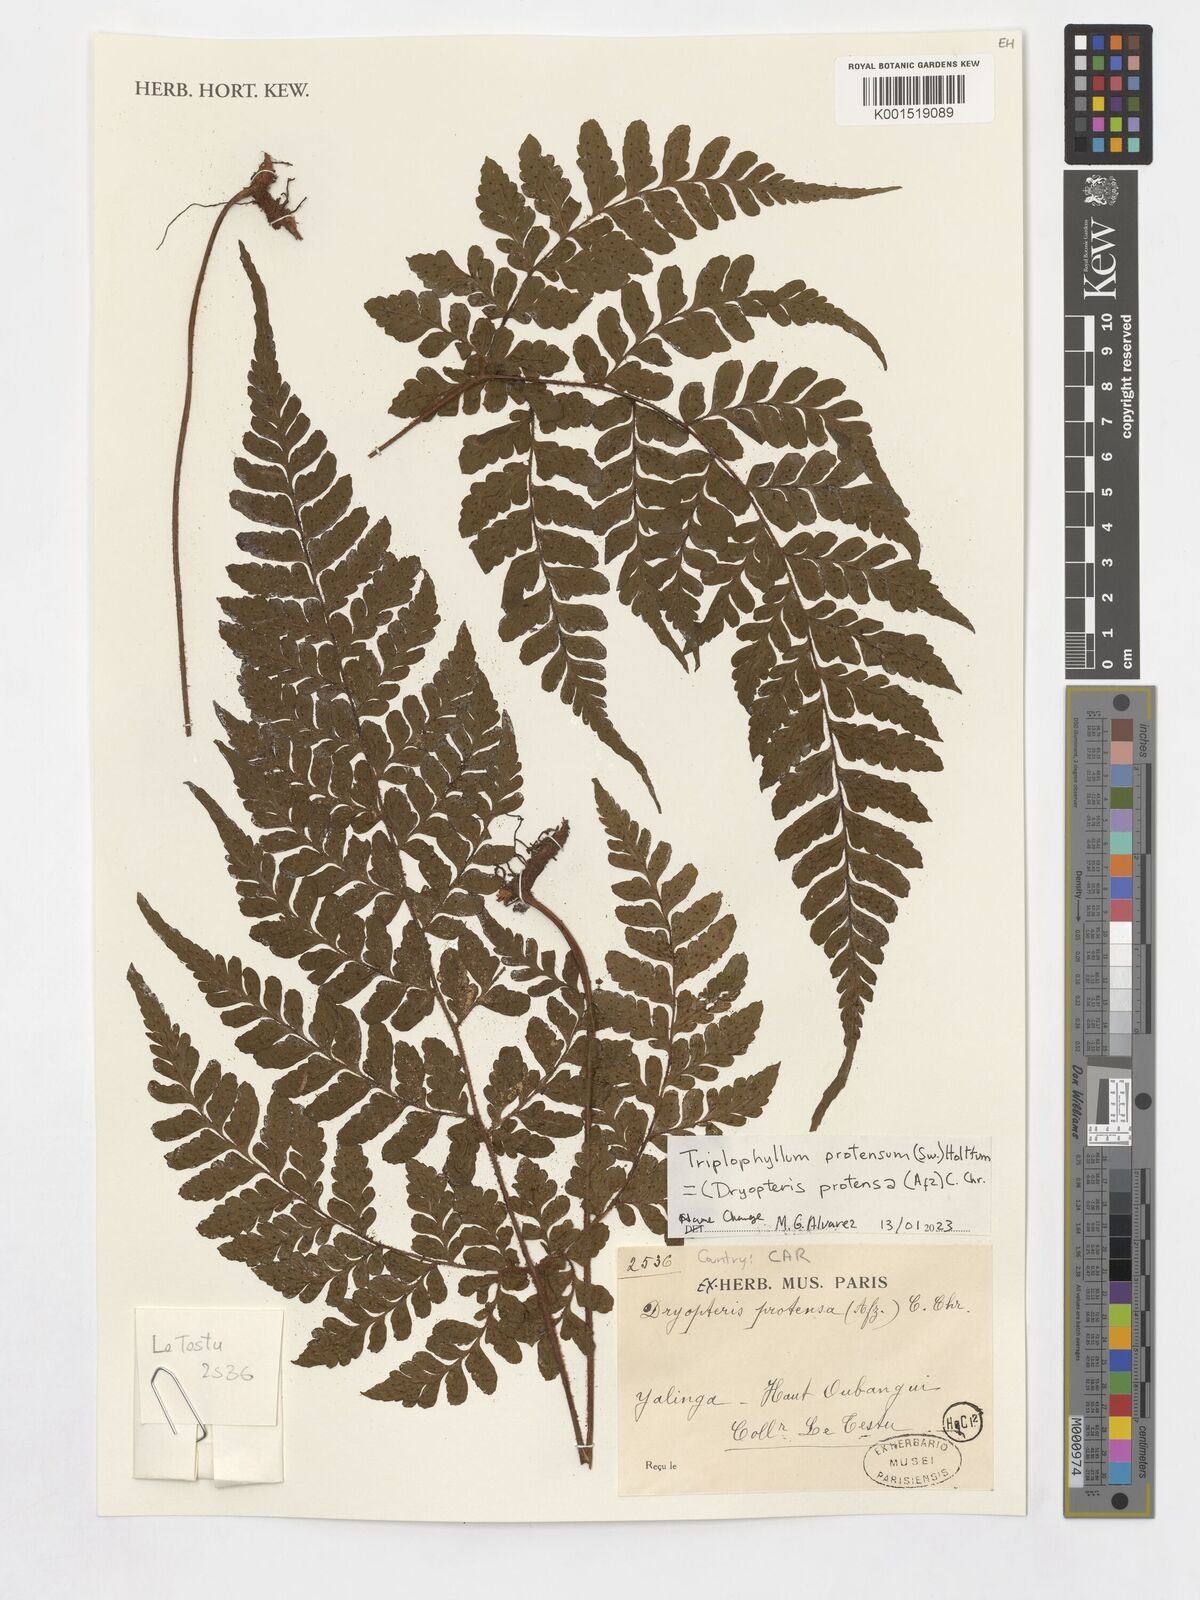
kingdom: Plantae
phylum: Tracheophyta
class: Polypodiopsida
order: Polypodiales
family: Tectariaceae
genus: Triplophyllum
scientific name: Triplophyllum protensum
